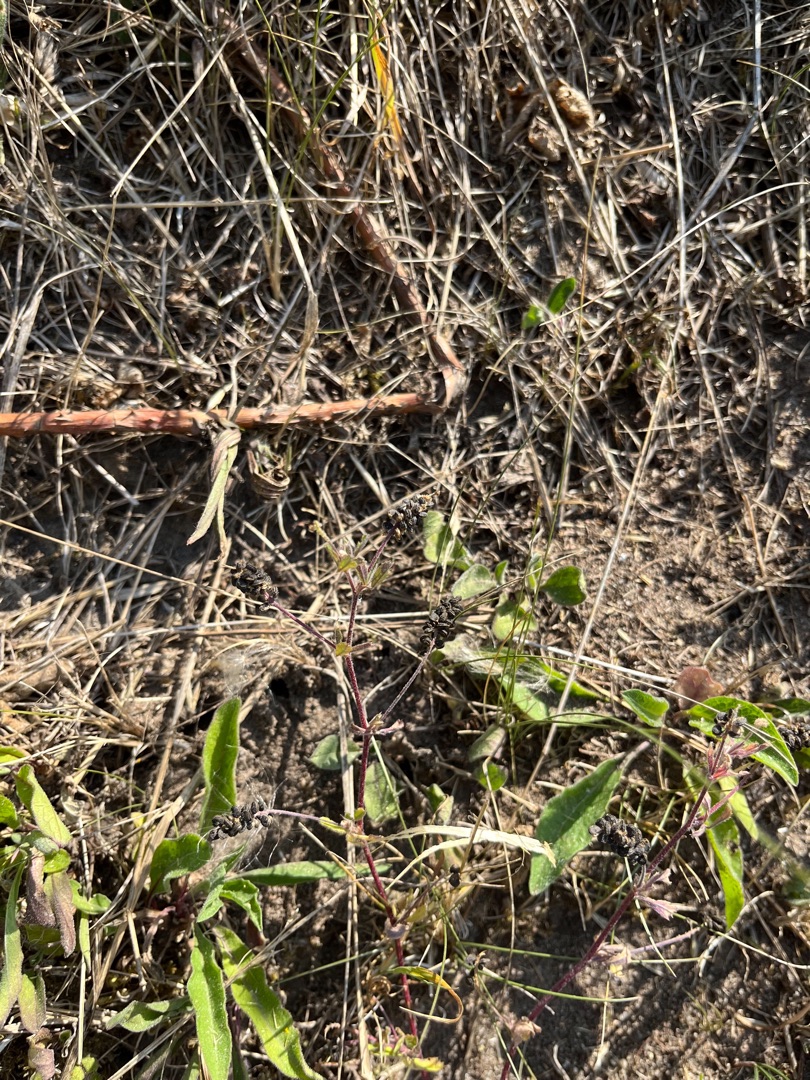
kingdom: Plantae
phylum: Tracheophyta
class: Magnoliopsida
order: Fabales
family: Fabaceae
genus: Medicago
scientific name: Medicago lupulina
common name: Humle-sneglebælg
